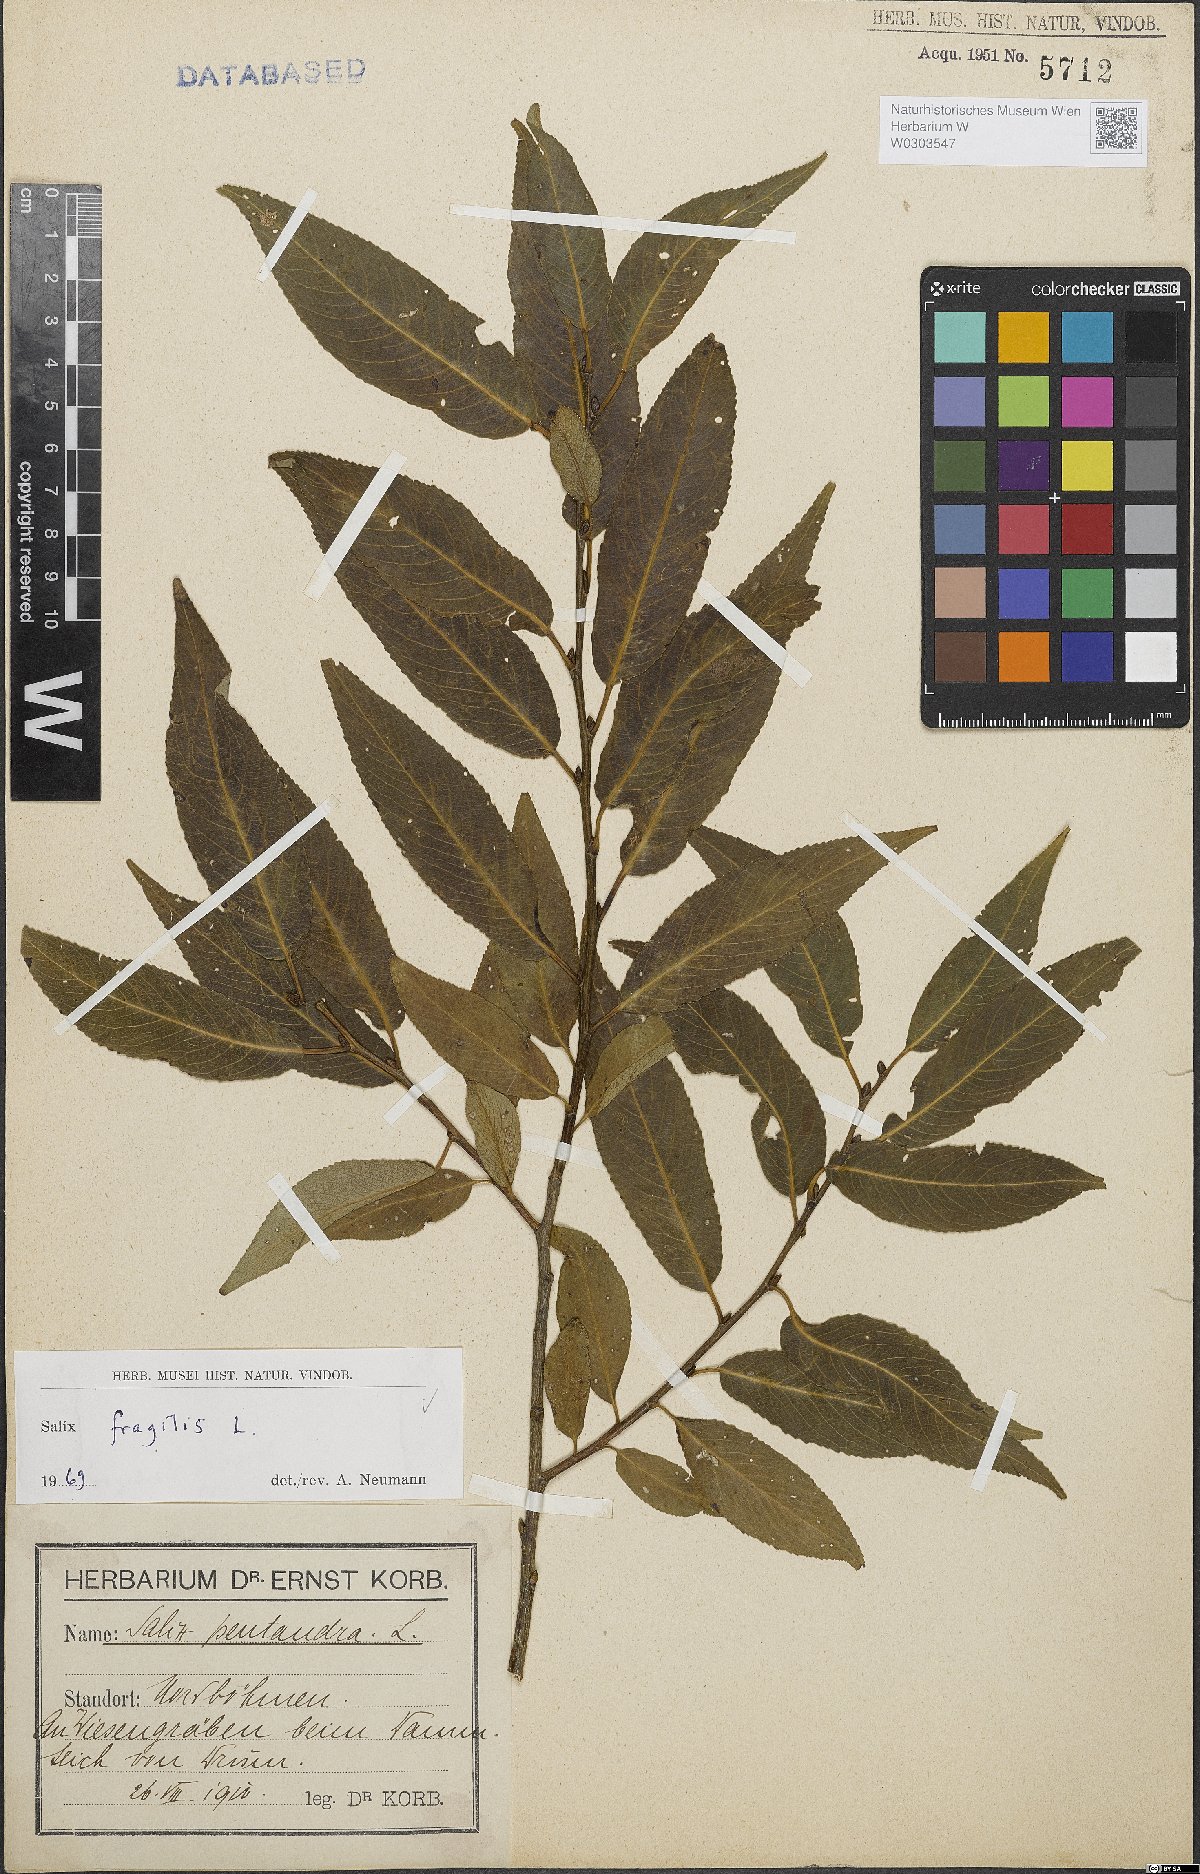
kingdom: Plantae
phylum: Tracheophyta
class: Magnoliopsida
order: Malpighiales
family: Salicaceae
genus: Salix
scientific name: Salix fragilis
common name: Crack willow
